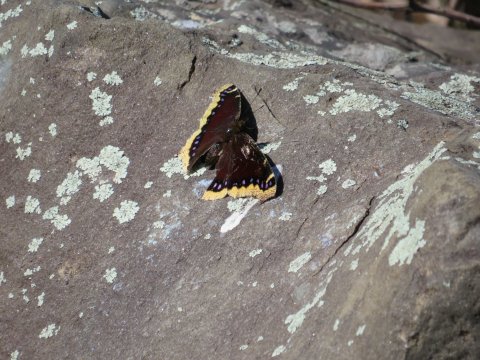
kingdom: Animalia
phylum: Arthropoda
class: Insecta
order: Lepidoptera
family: Nymphalidae
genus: Nymphalis
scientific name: Nymphalis antiopa
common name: Mourning Cloak
